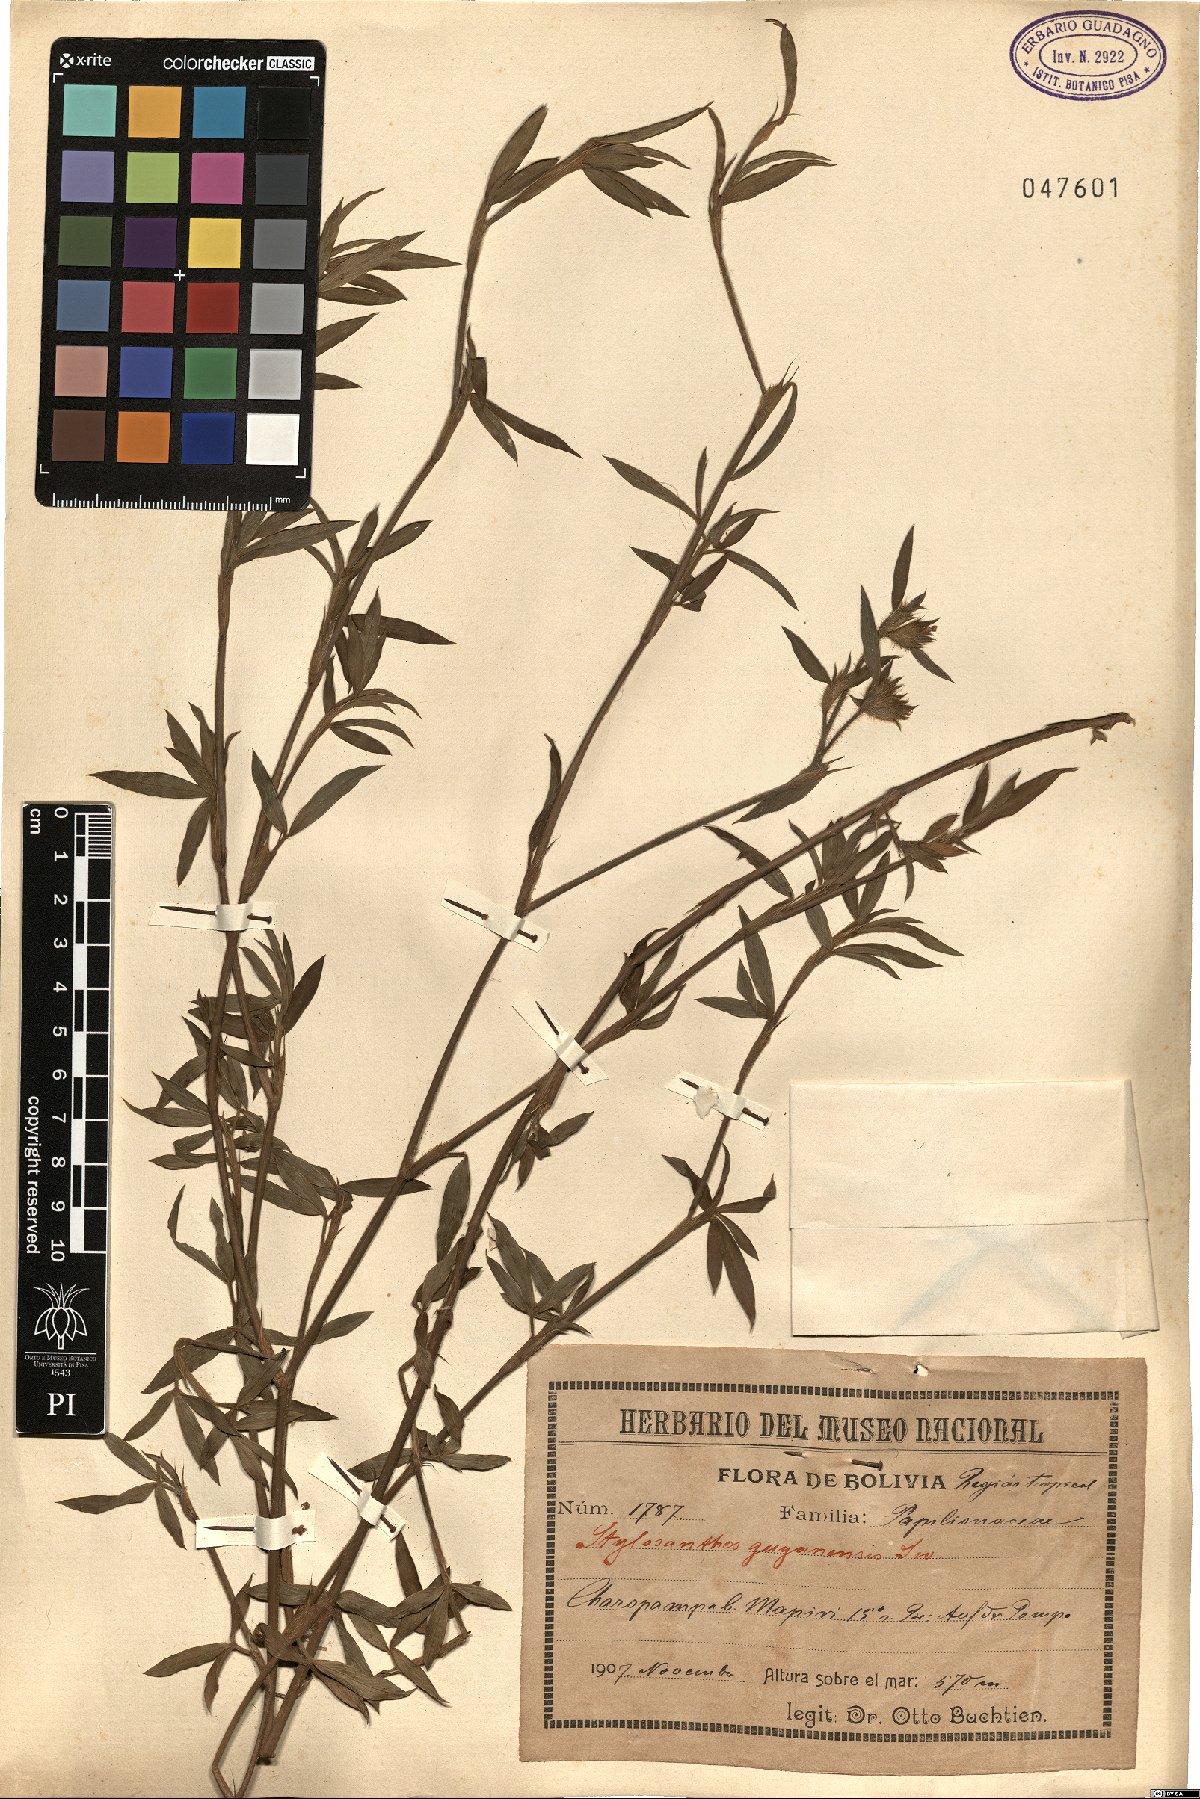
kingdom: Plantae
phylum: Tracheophyta
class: Magnoliopsida
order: Fabales
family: Fabaceae
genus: Stylosanthes
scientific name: Stylosanthes guianensis
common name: Pencil flower
